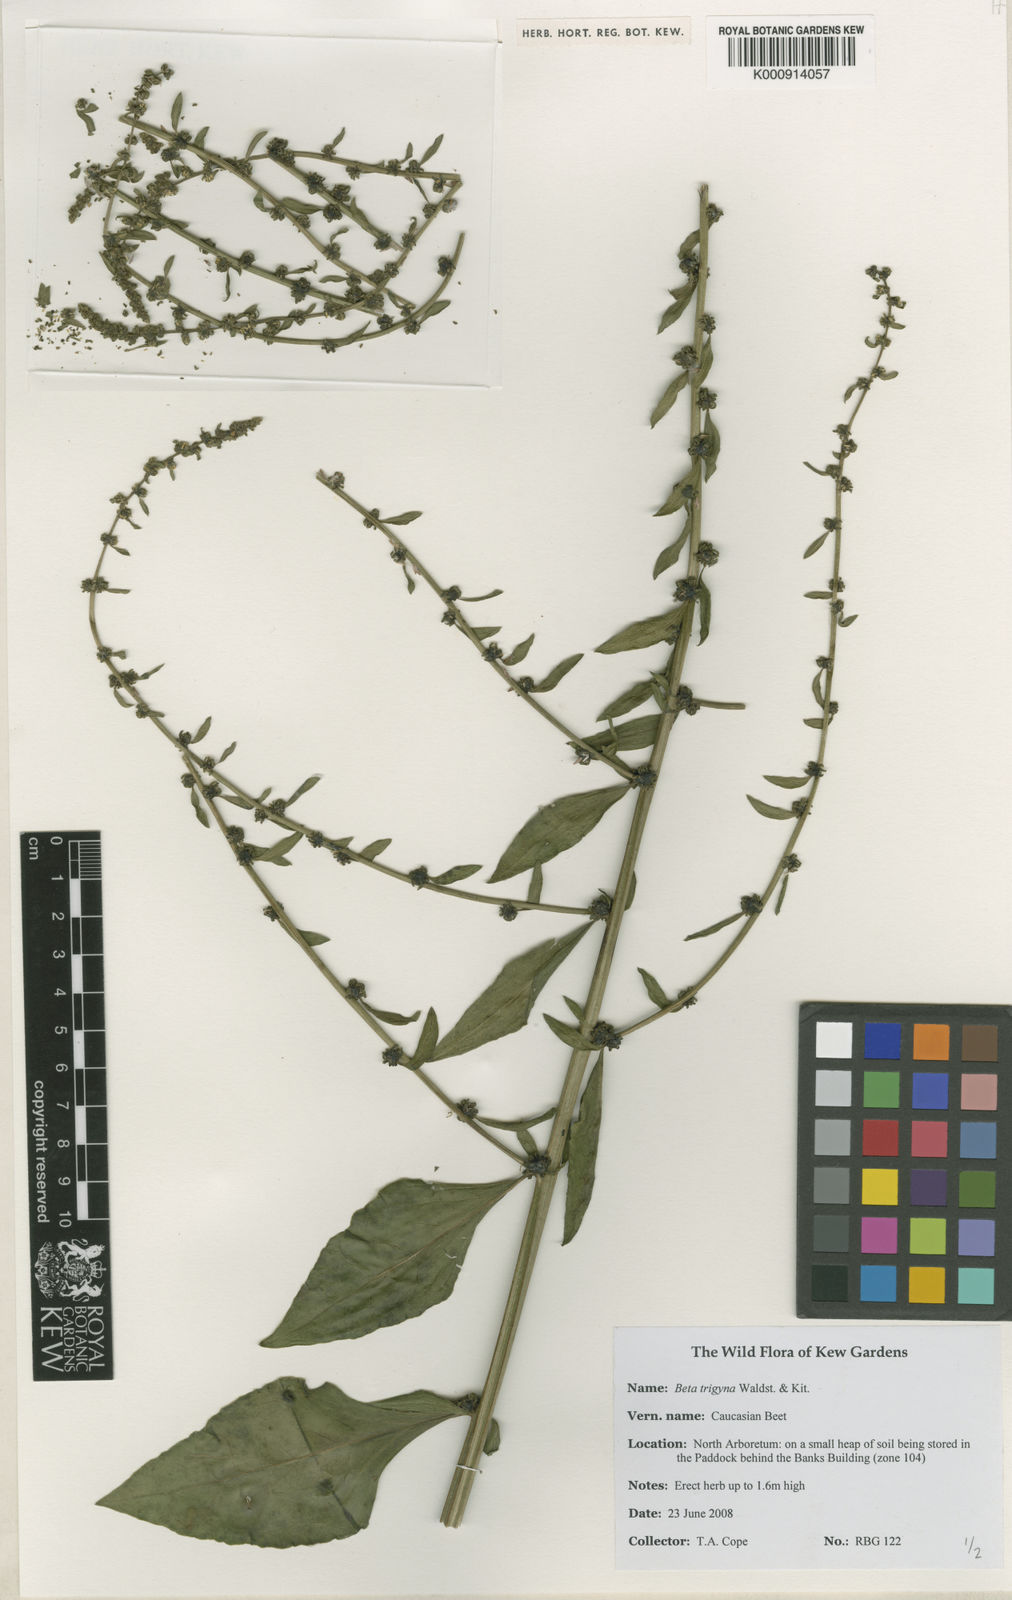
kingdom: Plantae
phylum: Tracheophyta
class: Magnoliopsida
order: Caryophyllales
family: Amaranthaceae
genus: Beta
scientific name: Beta trigyna
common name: Caucasian beet
